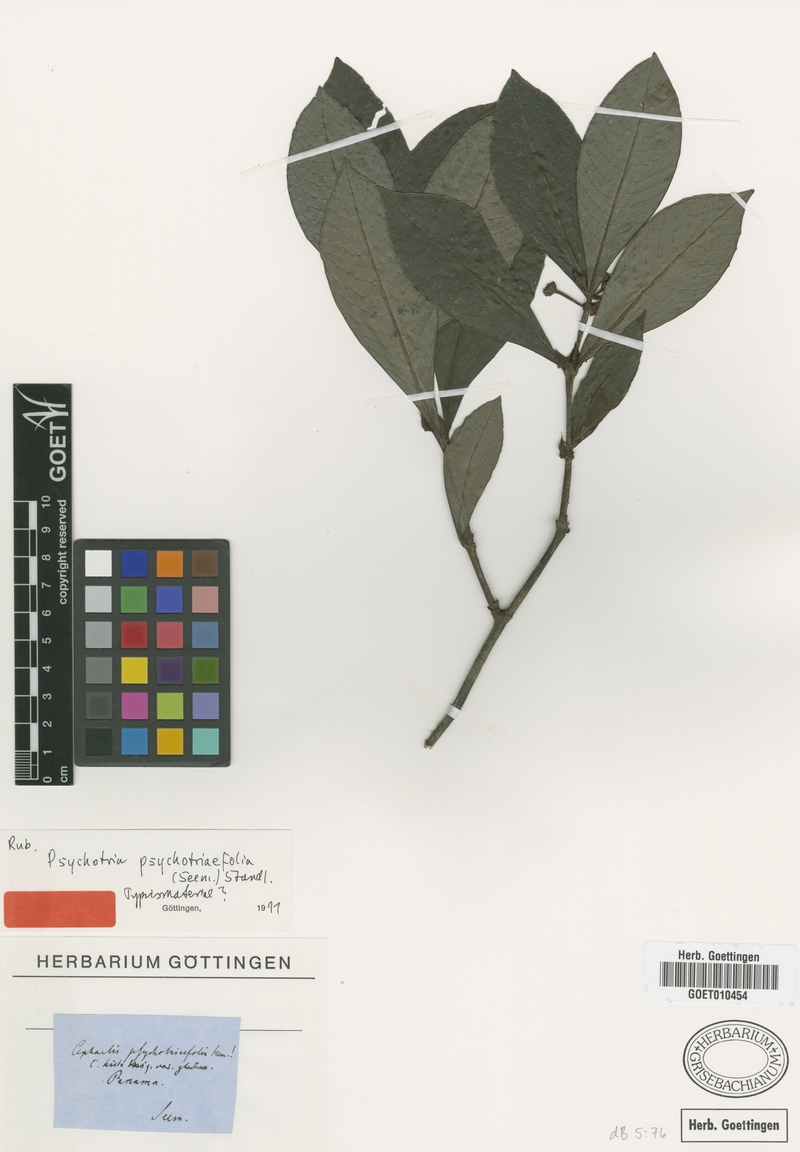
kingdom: Plantae
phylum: Tracheophyta
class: Magnoliopsida
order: Gentianales
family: Rubiaceae
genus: Psychotria
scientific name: Psychotria psychotriifolia
